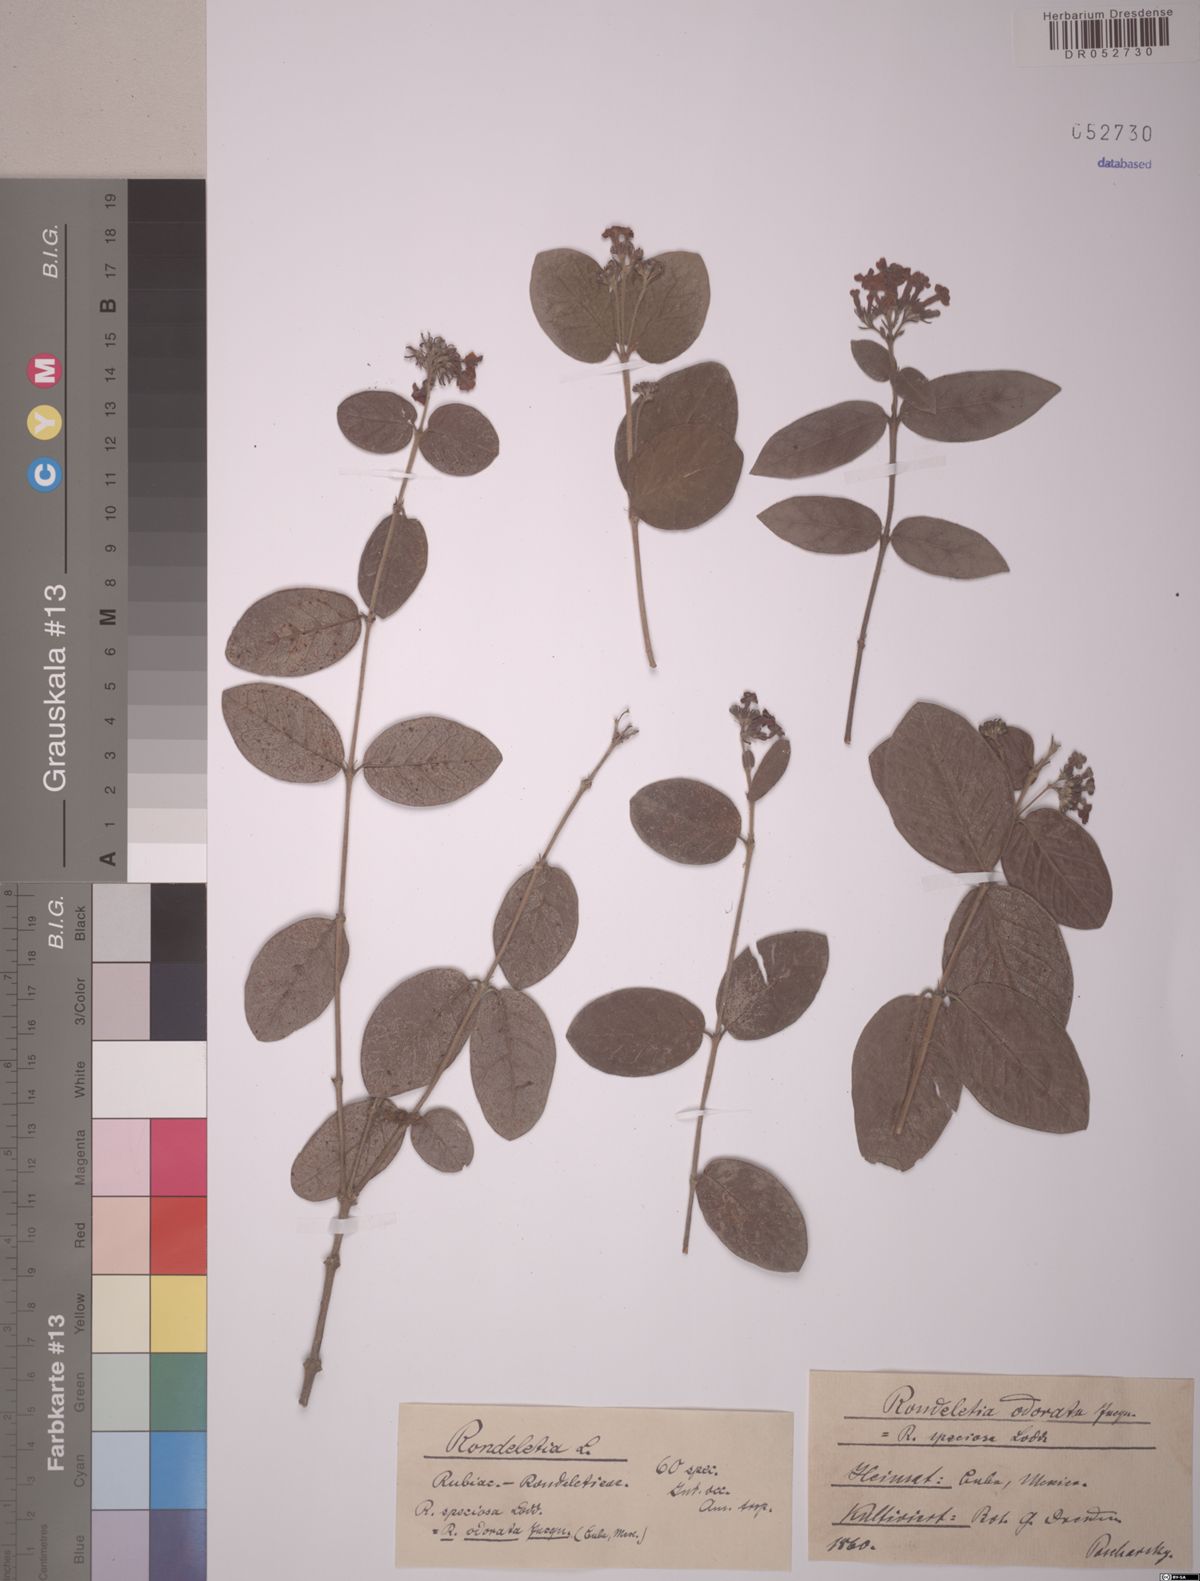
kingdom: Plantae
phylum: Tracheophyta
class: Magnoliopsida
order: Gentianales
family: Rubiaceae
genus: Rondeletia
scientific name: Rondeletia odorata
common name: Panama-rose
